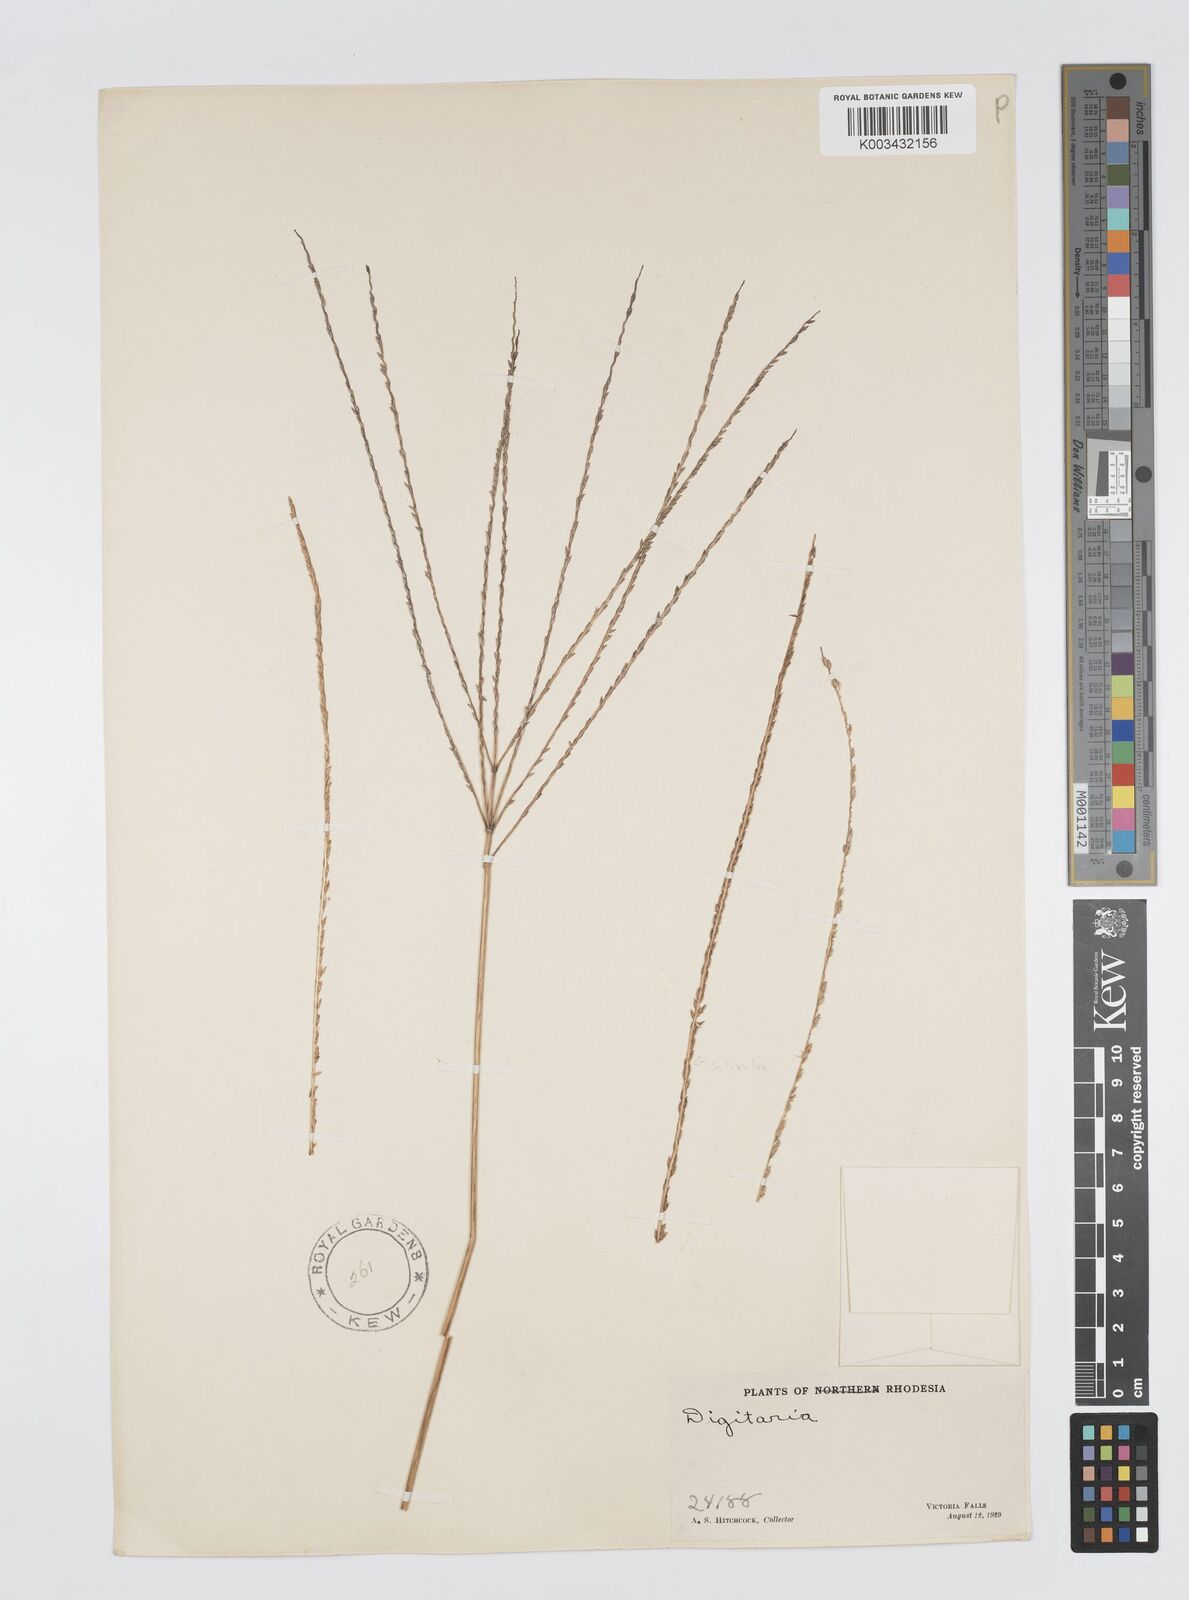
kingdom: Plantae
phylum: Tracheophyta
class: Liliopsida
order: Poales
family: Poaceae
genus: Digitaria
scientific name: Digitaria milanjiana
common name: Madagascar crabgrass
